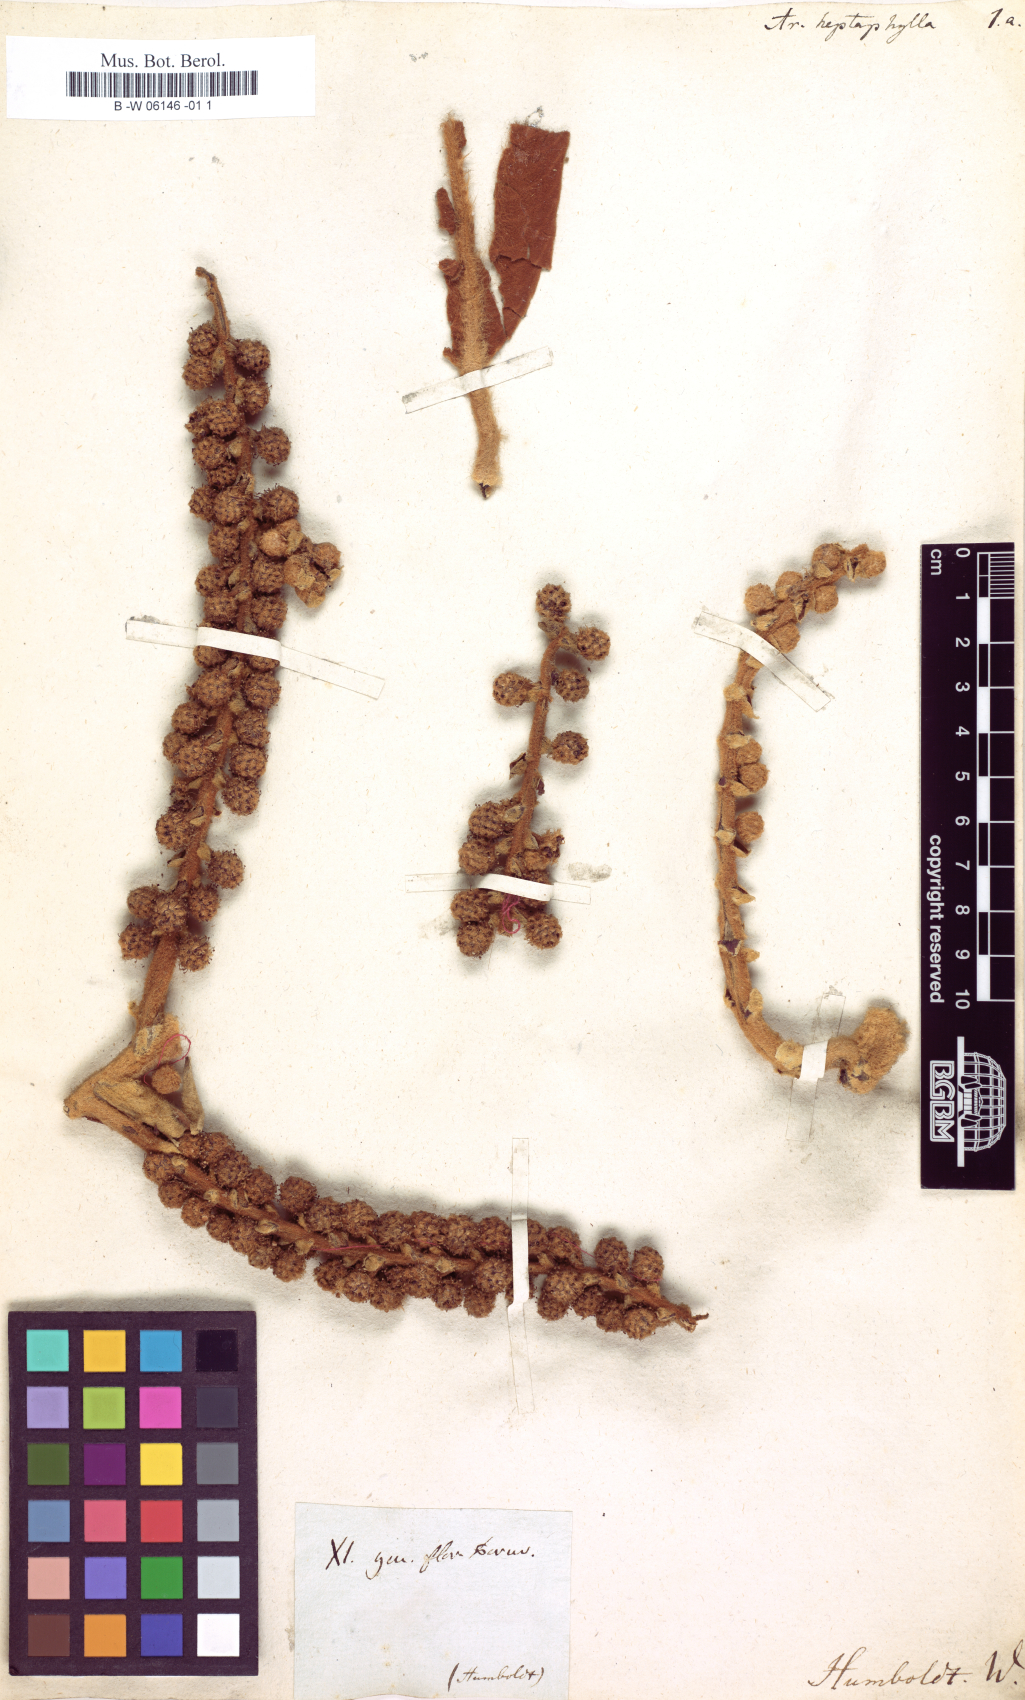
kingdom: Plantae
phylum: Tracheophyta
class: Magnoliopsida
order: Apiales
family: Araliaceae
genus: Heptapleurum
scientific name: Heptapleurum heptaphyllum
